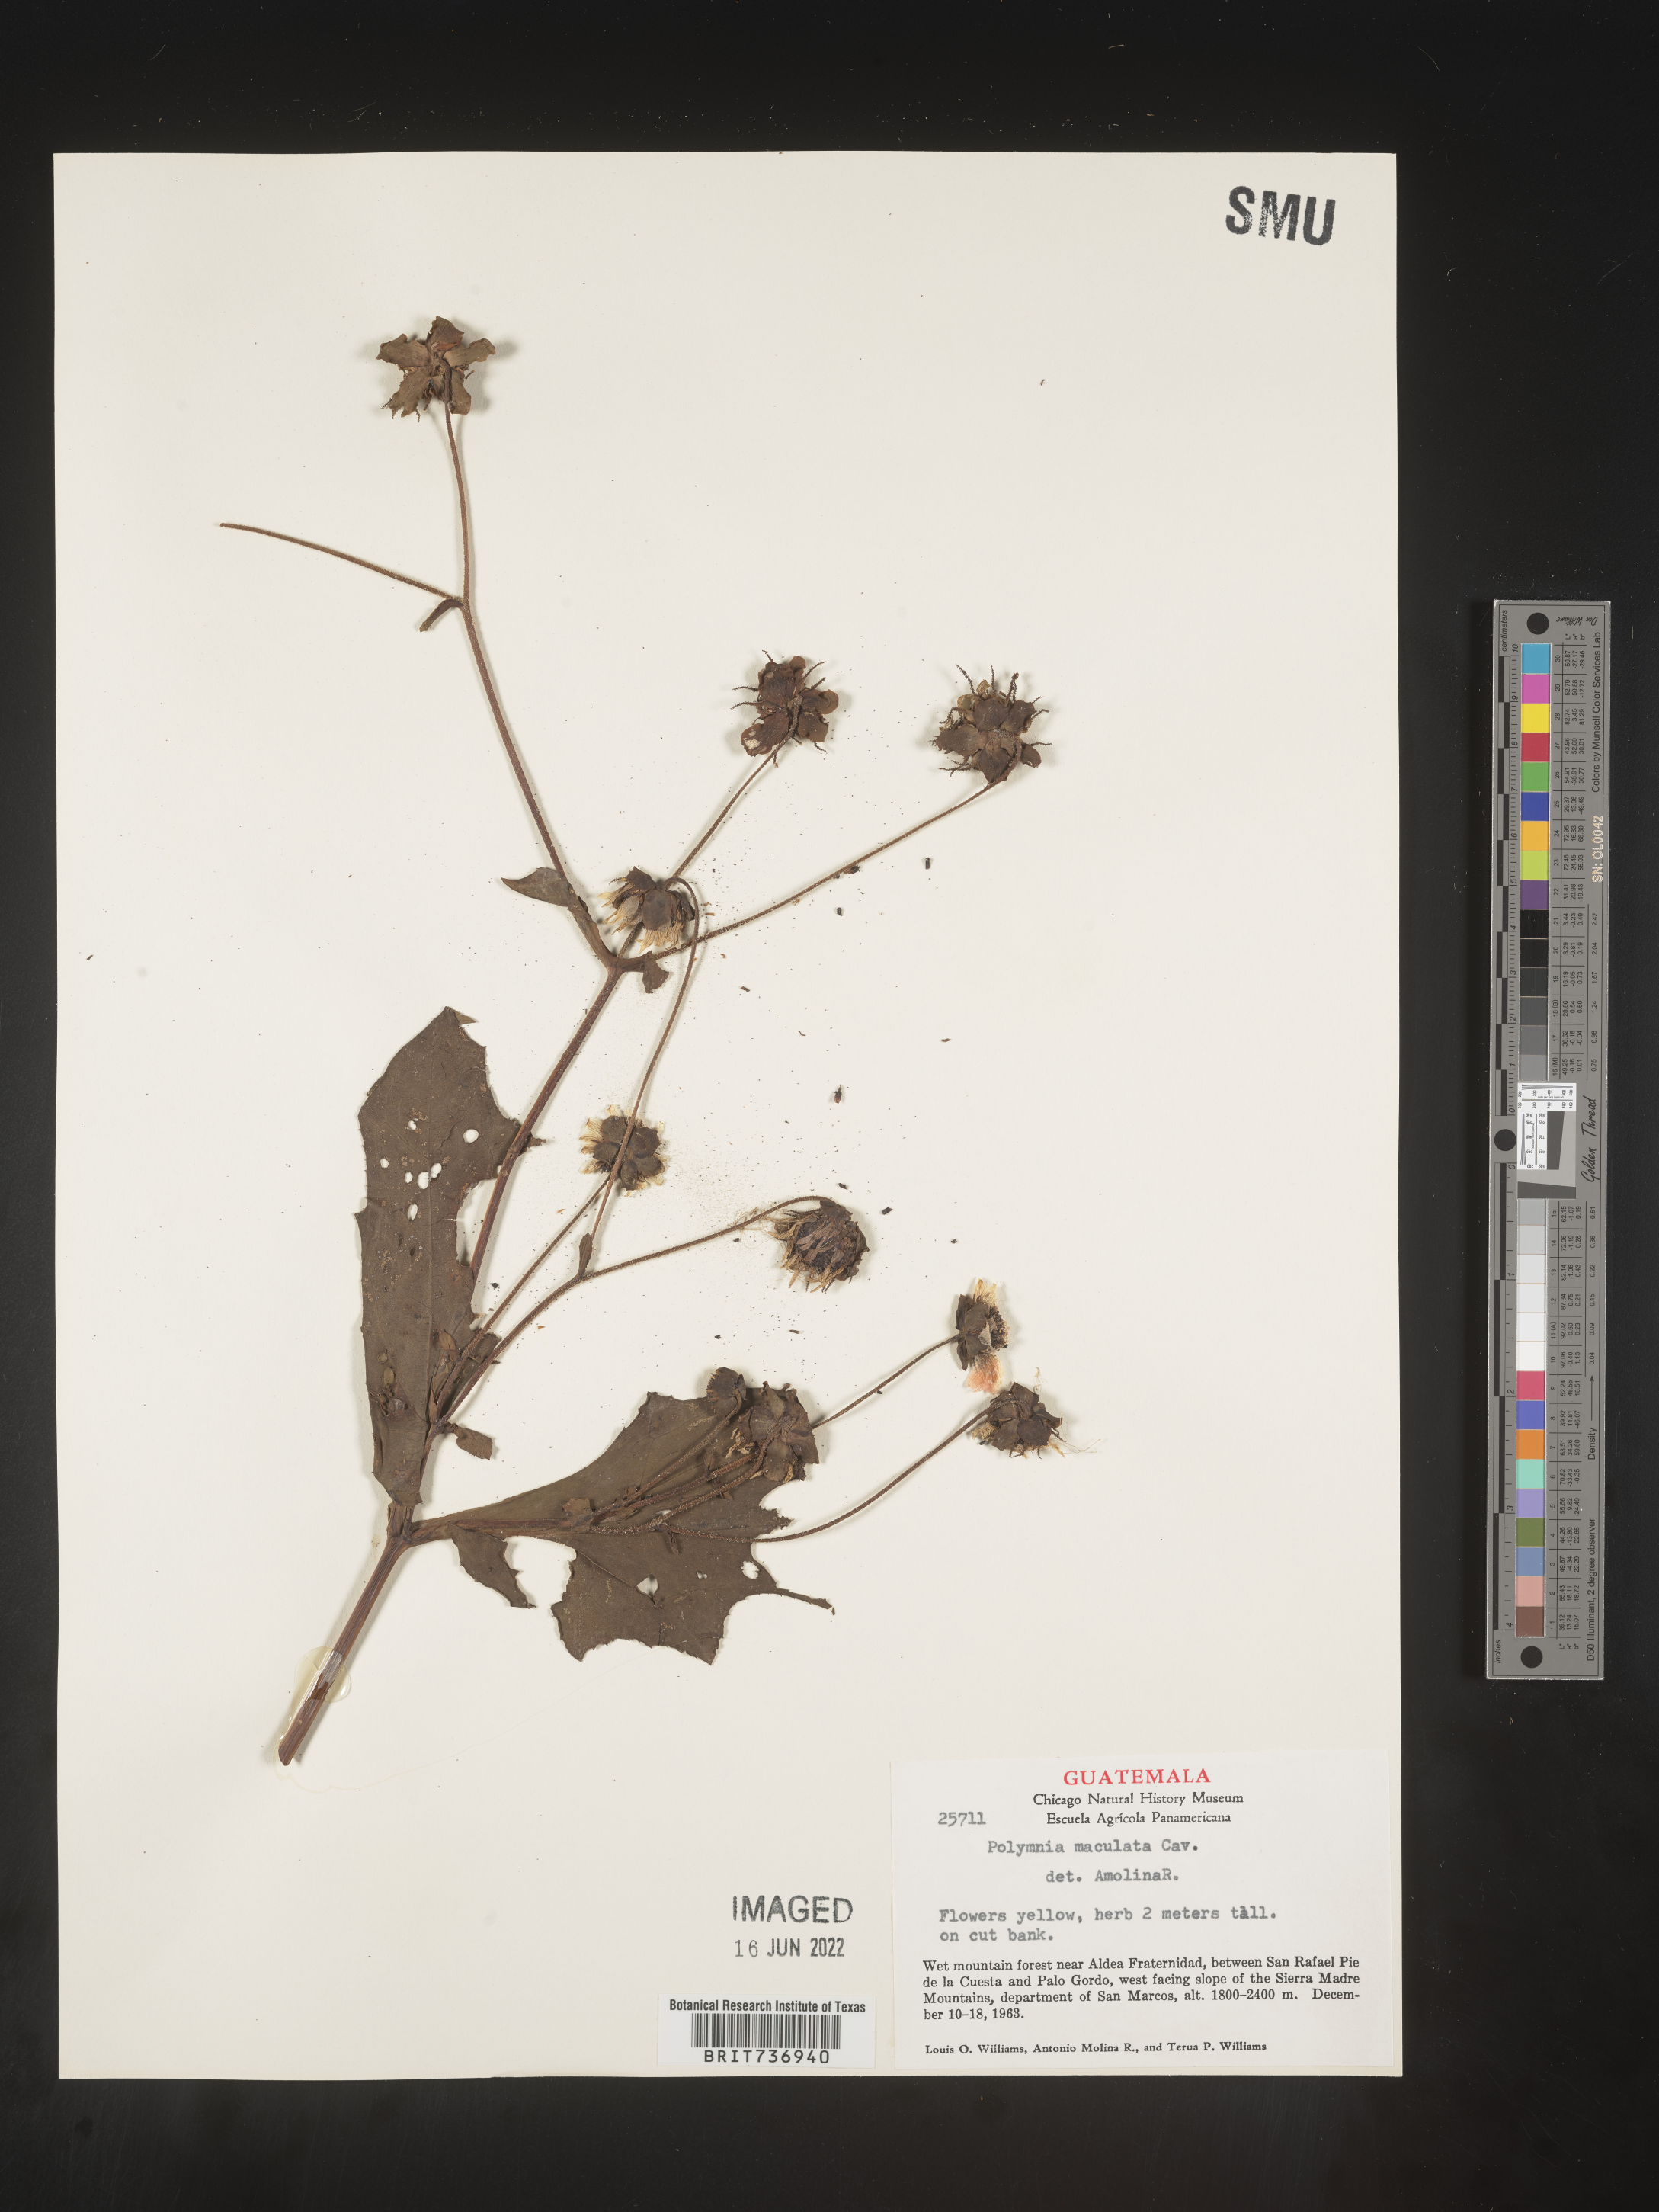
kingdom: Plantae
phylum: Tracheophyta
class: Magnoliopsida
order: Asterales
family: Asteraceae
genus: Polymnia
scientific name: Polymnia
